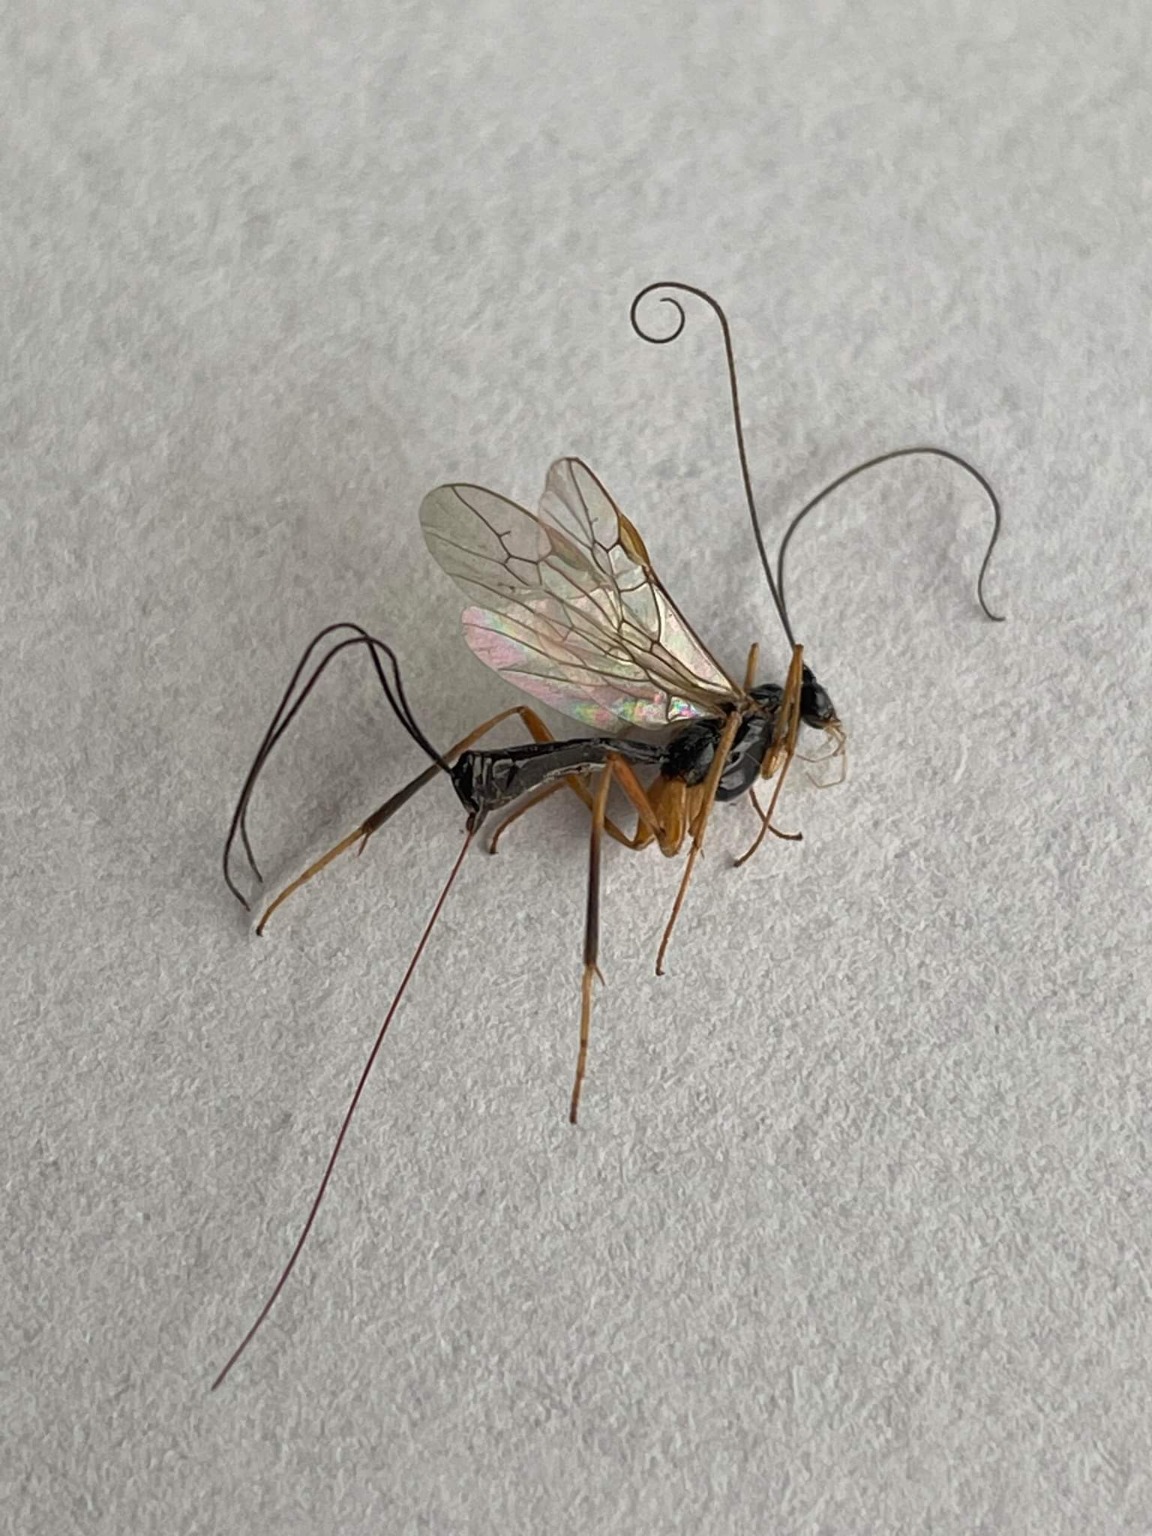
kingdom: Animalia
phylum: Arthropoda
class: Insecta
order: Hymenoptera
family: Braconidae
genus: Macrocentrus
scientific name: Macrocentrus
